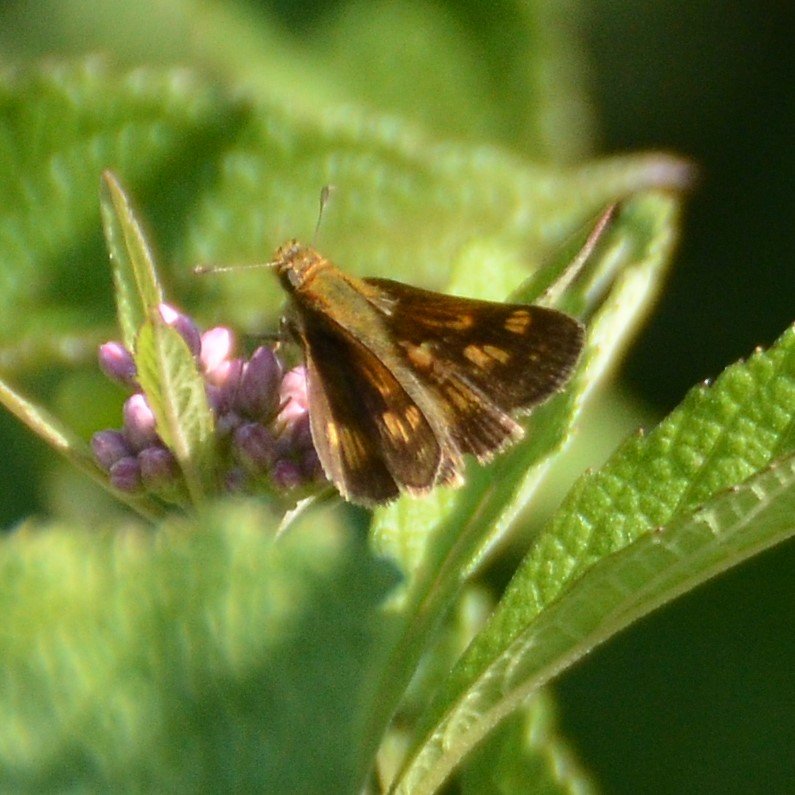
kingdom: Animalia
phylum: Arthropoda
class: Insecta
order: Lepidoptera
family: Hesperiidae
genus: Polites
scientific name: Polites coras
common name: Peck's Skipper
